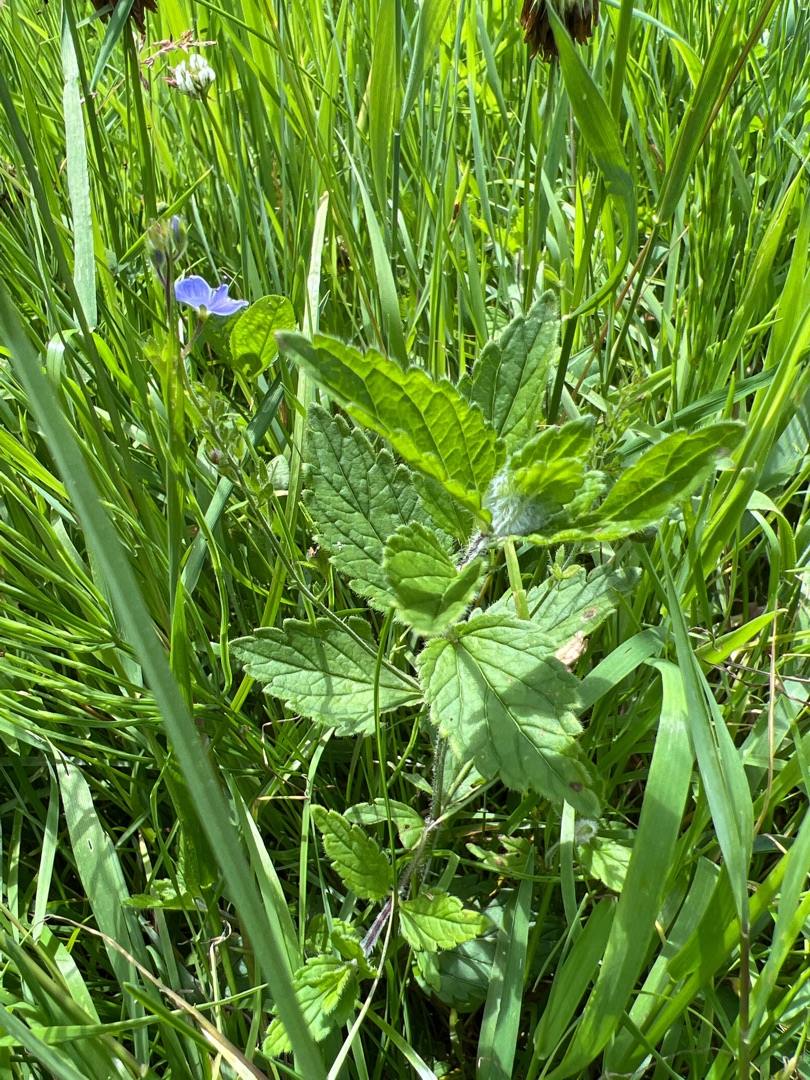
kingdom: Plantae
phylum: Tracheophyta
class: Magnoliopsida
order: Lamiales
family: Plantaginaceae
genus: Veronica
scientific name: Veronica chamaedrys
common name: Tveskægget ærenpris
